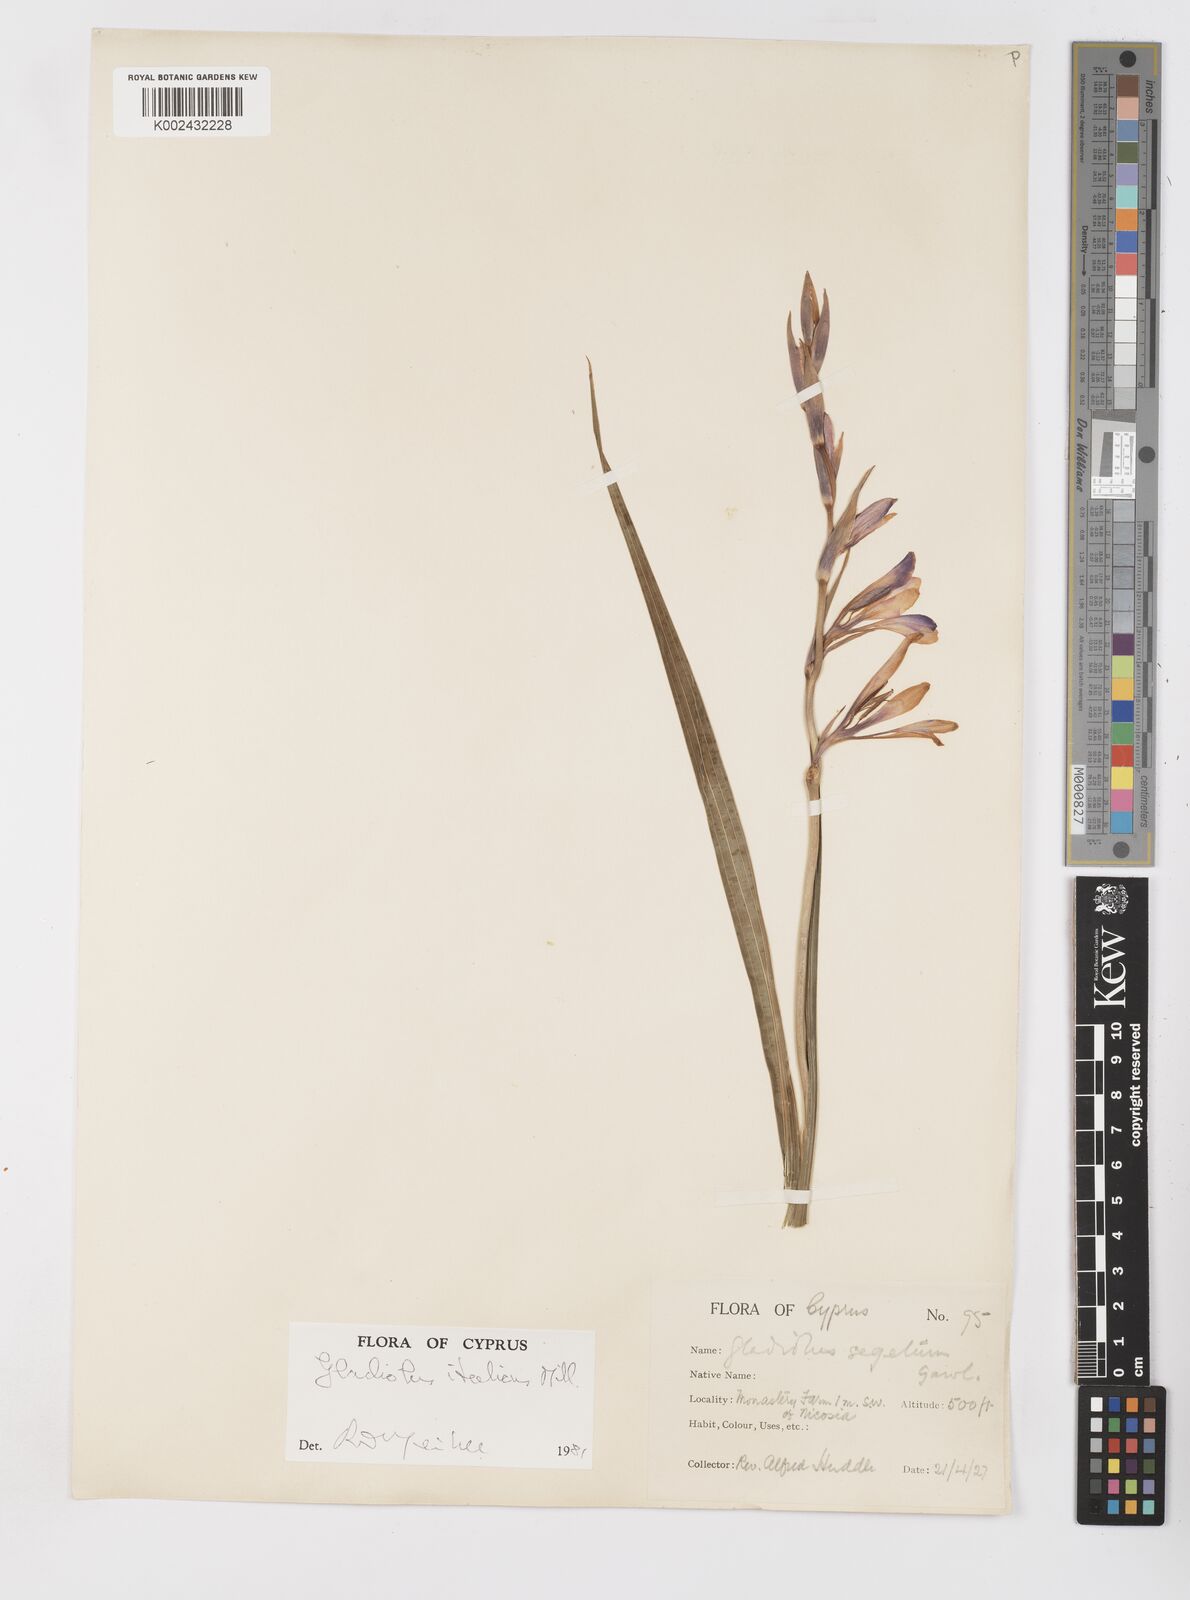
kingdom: Plantae
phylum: Tracheophyta
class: Liliopsida
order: Asparagales
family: Iridaceae
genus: Gladiolus
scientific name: Gladiolus italicus
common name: Field gladiolus
